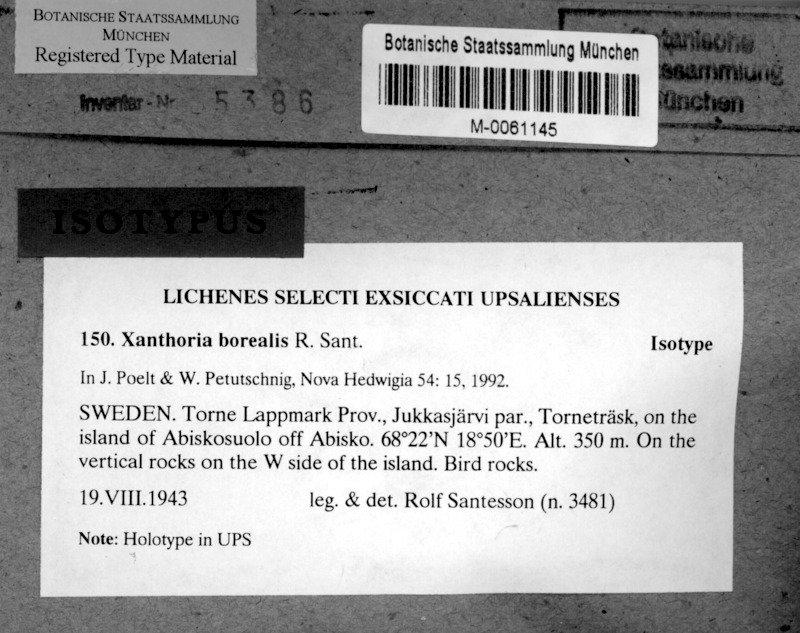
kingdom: Fungi
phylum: Ascomycota
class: Lecanoromycetes
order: Teloschistales
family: Teloschistaceae
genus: Gallowayella
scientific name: Gallowayella borealis
